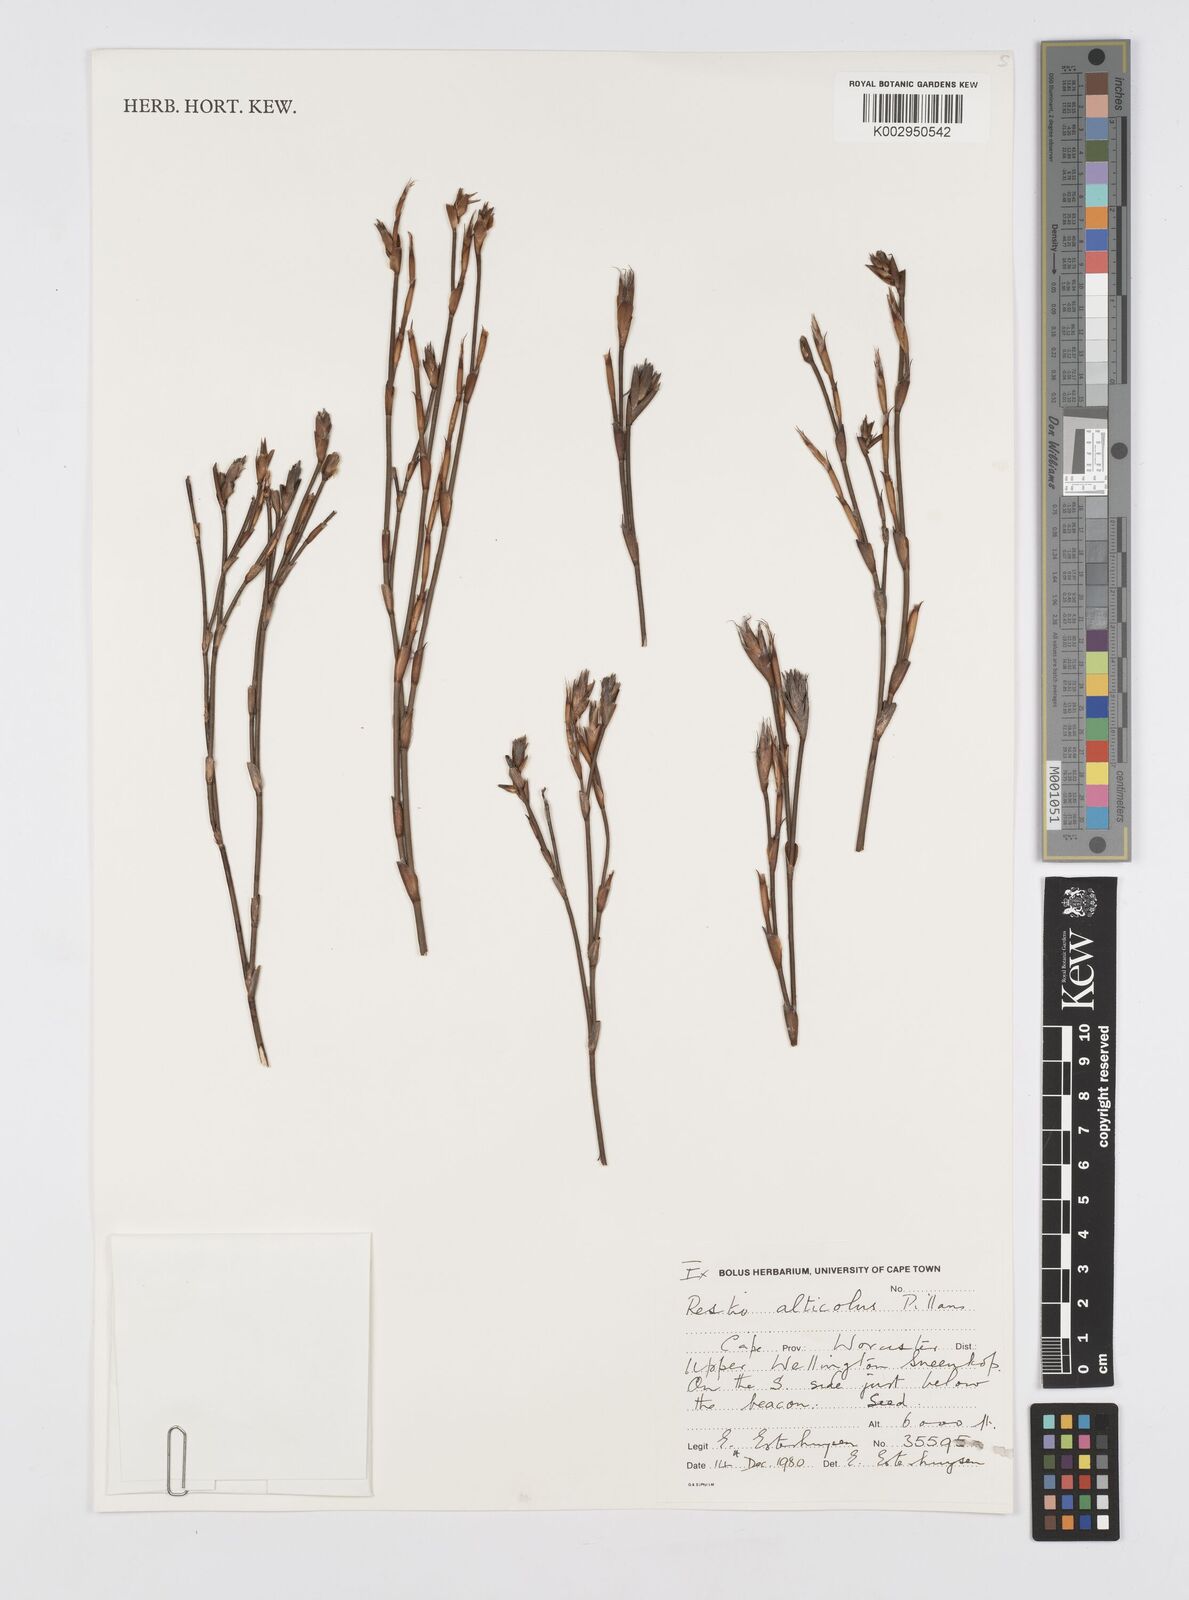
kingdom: Plantae
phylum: Tracheophyta
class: Liliopsida
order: Poales
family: Restionaceae
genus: Restio
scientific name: Restio alticola
